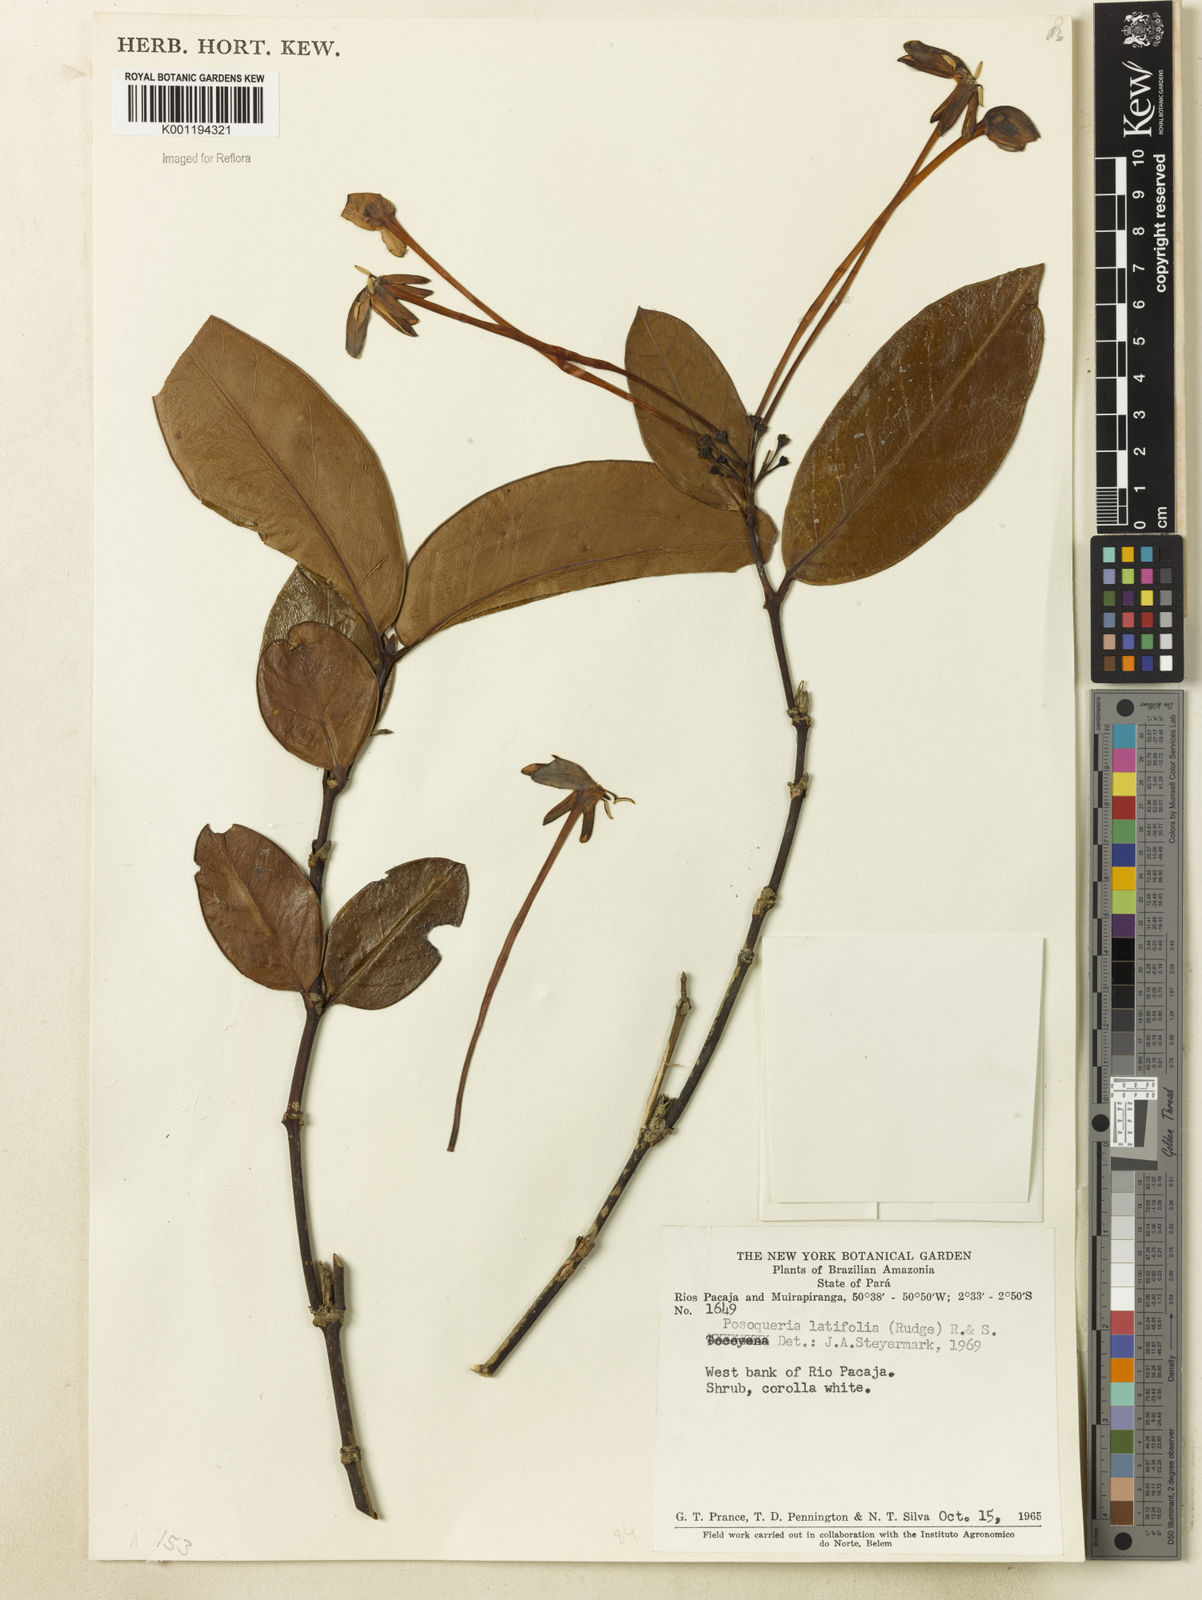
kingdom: Plantae
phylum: Tracheophyta
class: Magnoliopsida
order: Gentianales
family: Rubiaceae
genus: Posoqueria
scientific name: Posoqueria latifolia
